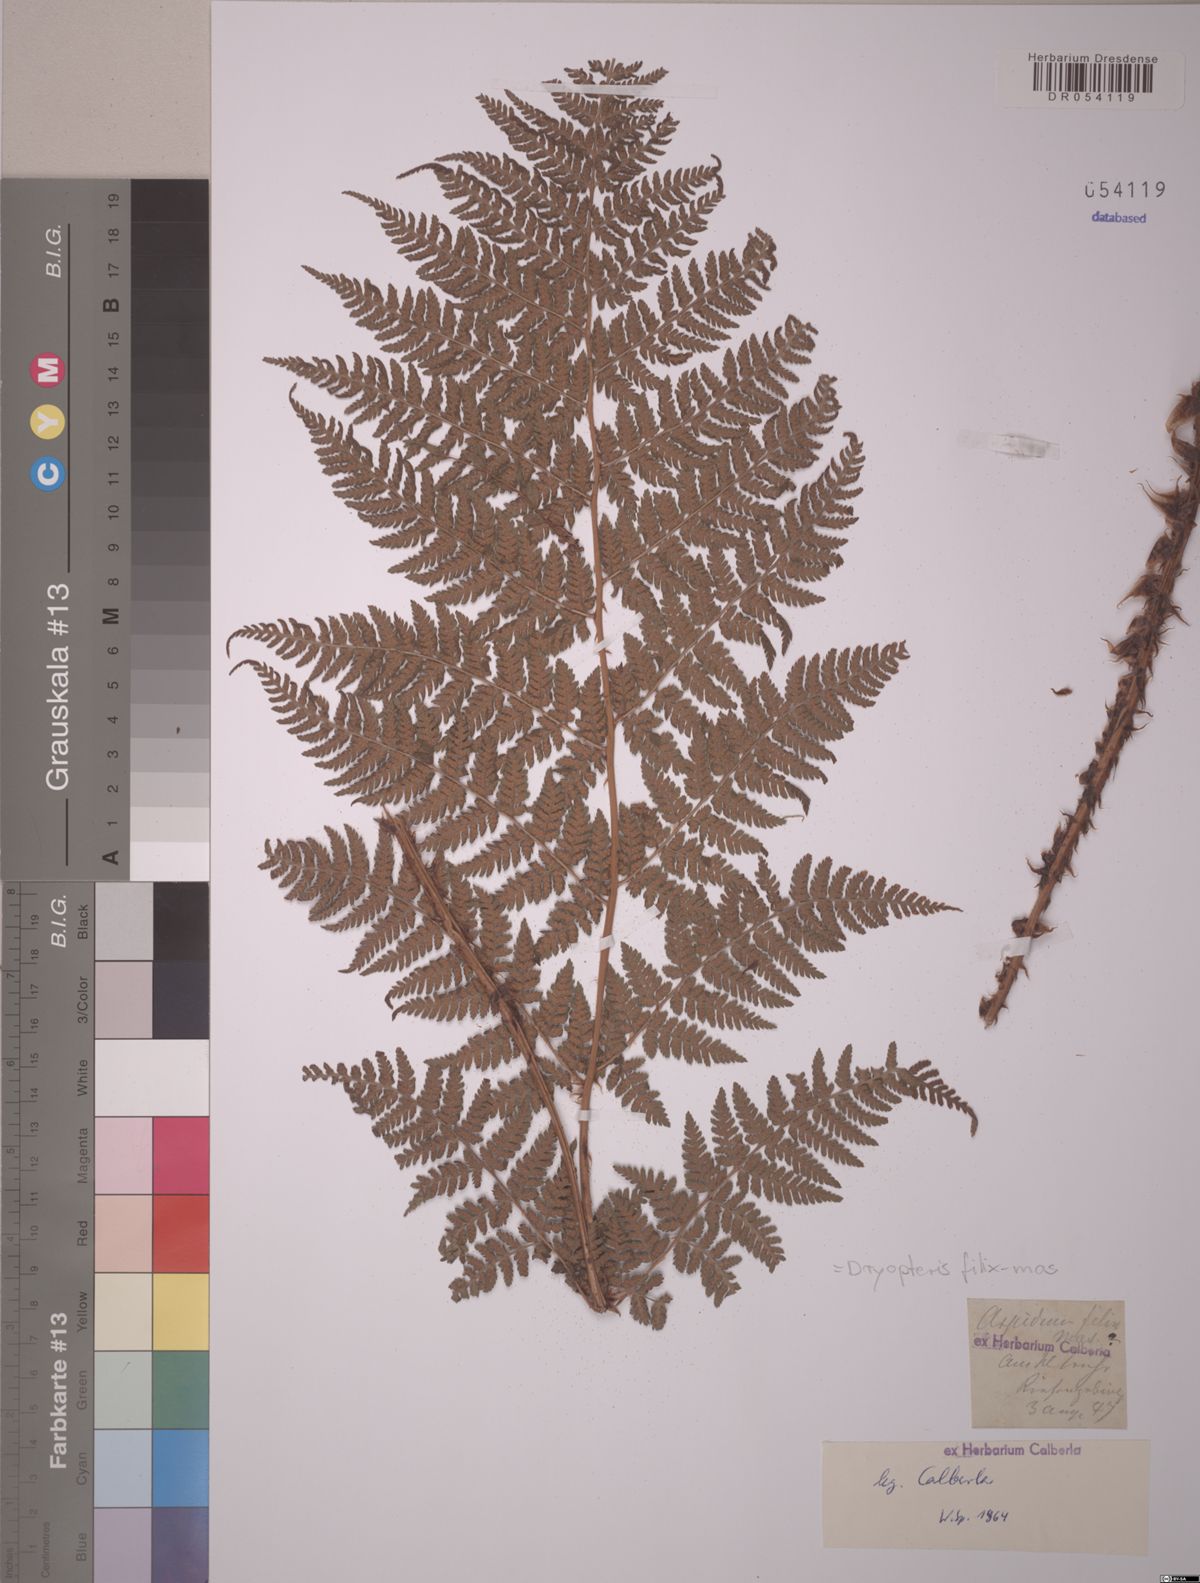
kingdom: Plantae
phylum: Tracheophyta
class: Polypodiopsida
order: Polypodiales
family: Dryopteridaceae
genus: Dryopteris
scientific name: Dryopteris filix-mas
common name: Male fern
